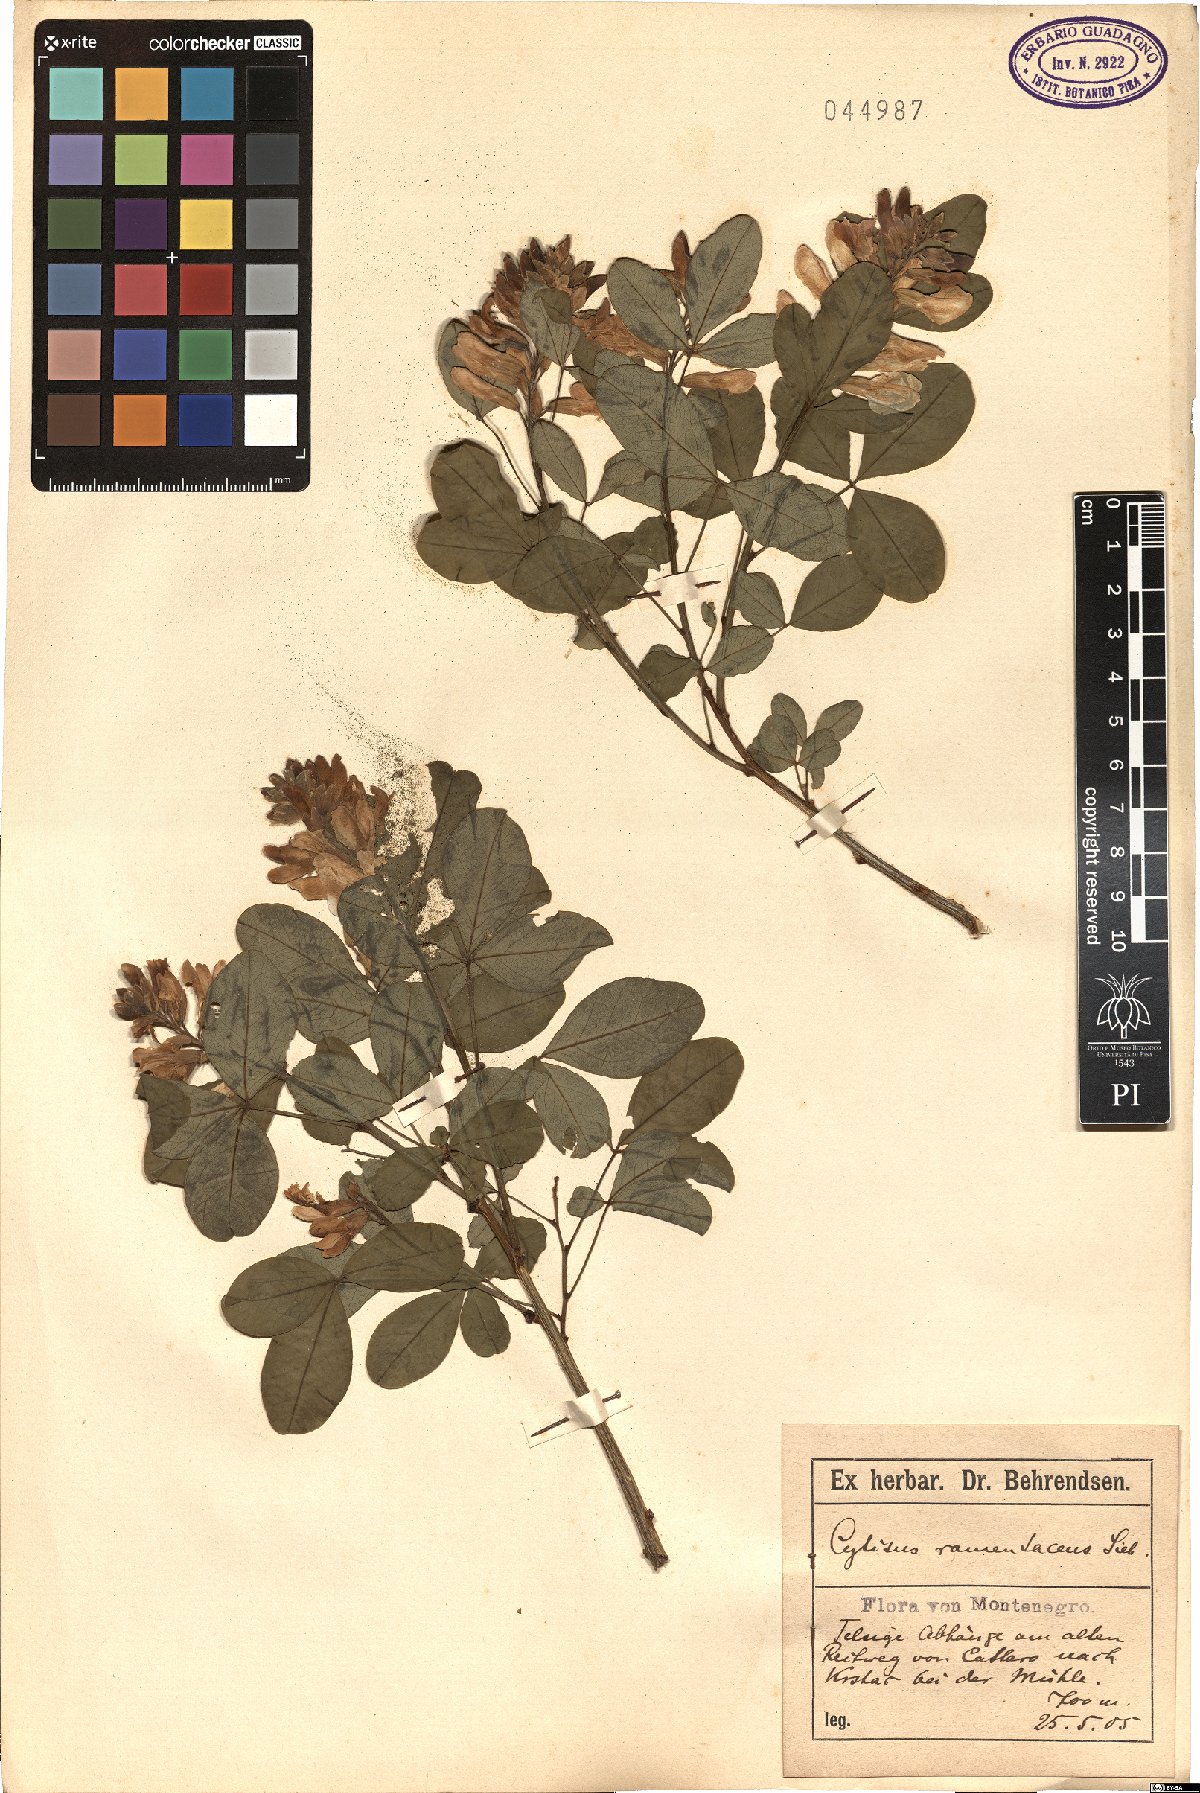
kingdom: Plantae
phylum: Tracheophyta
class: Magnoliopsida
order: Fabales
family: Fabaceae
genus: Petteria
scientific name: Petteria ramentacea
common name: Albanian broom
